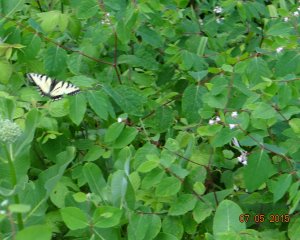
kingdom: Animalia
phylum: Arthropoda
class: Insecta
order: Lepidoptera
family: Papilionidae
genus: Pterourus
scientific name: Pterourus canadensis
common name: Canadian Tiger Swallowtail
